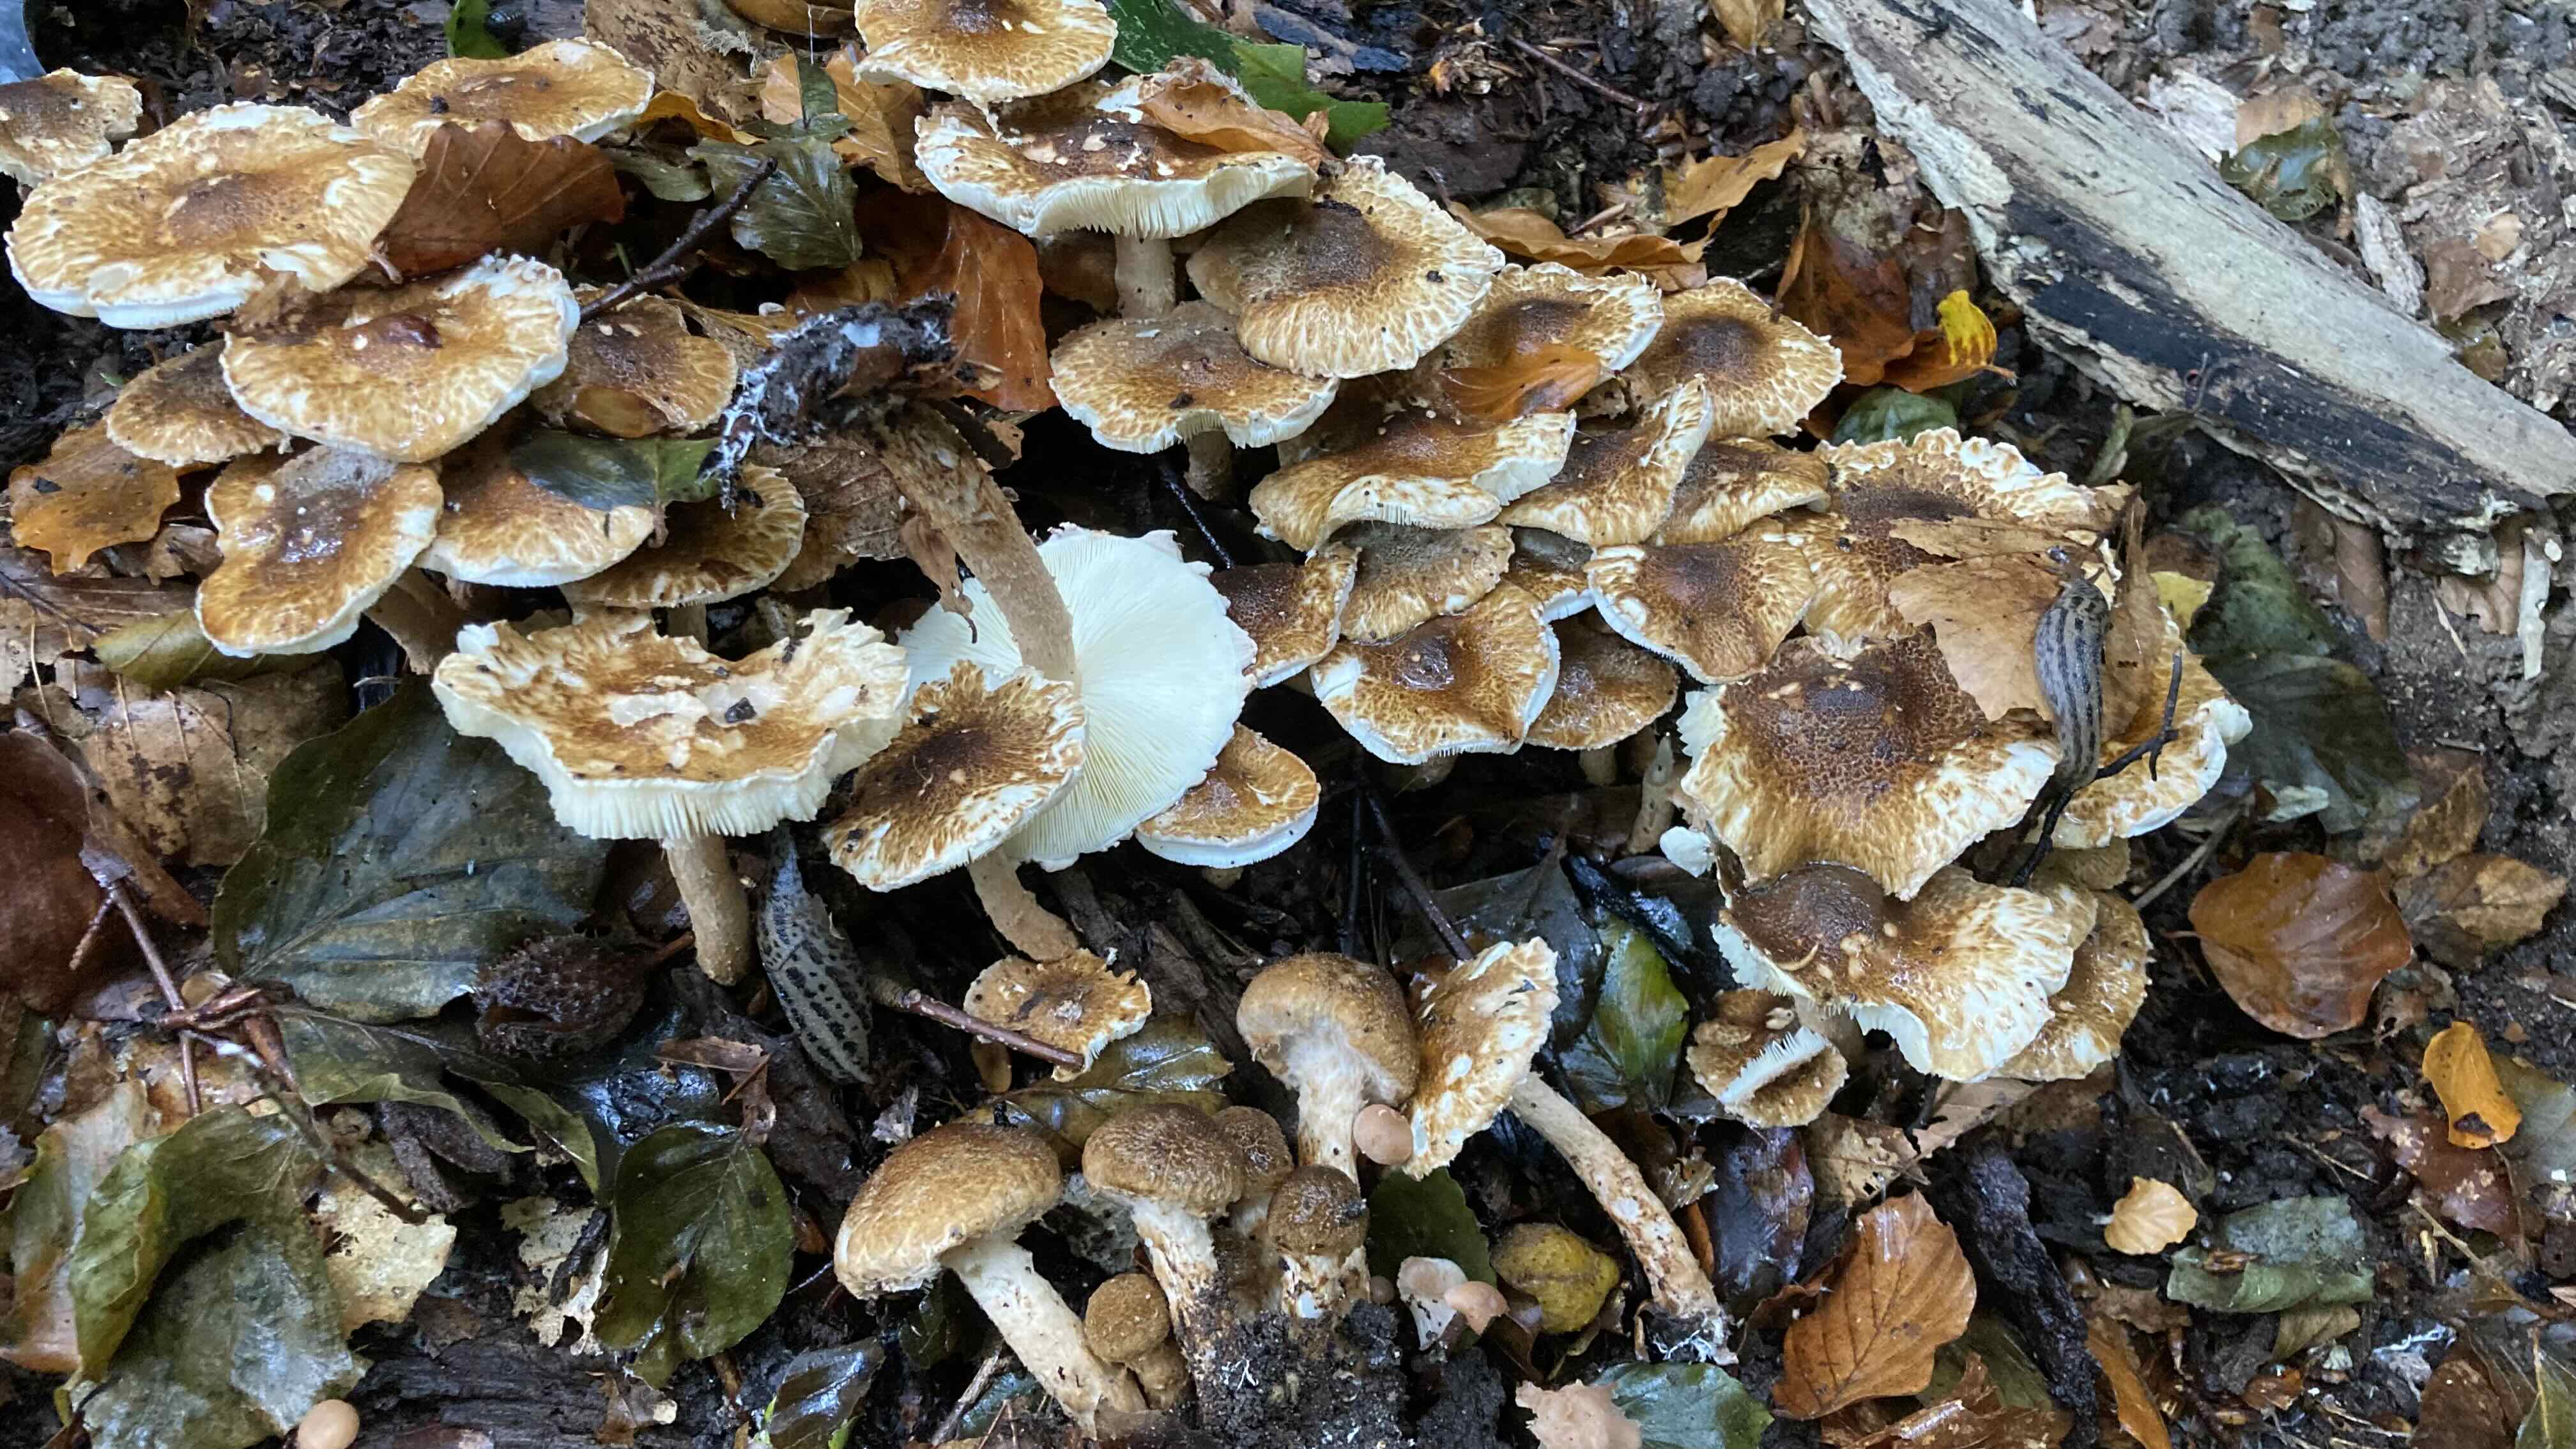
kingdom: Fungi
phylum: Basidiomycota
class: Agaricomycetes
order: Agaricales
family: Agaricaceae
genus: Leucocoprinus
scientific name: Leucocoprinus straminellus
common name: rustbrun parasolhat
